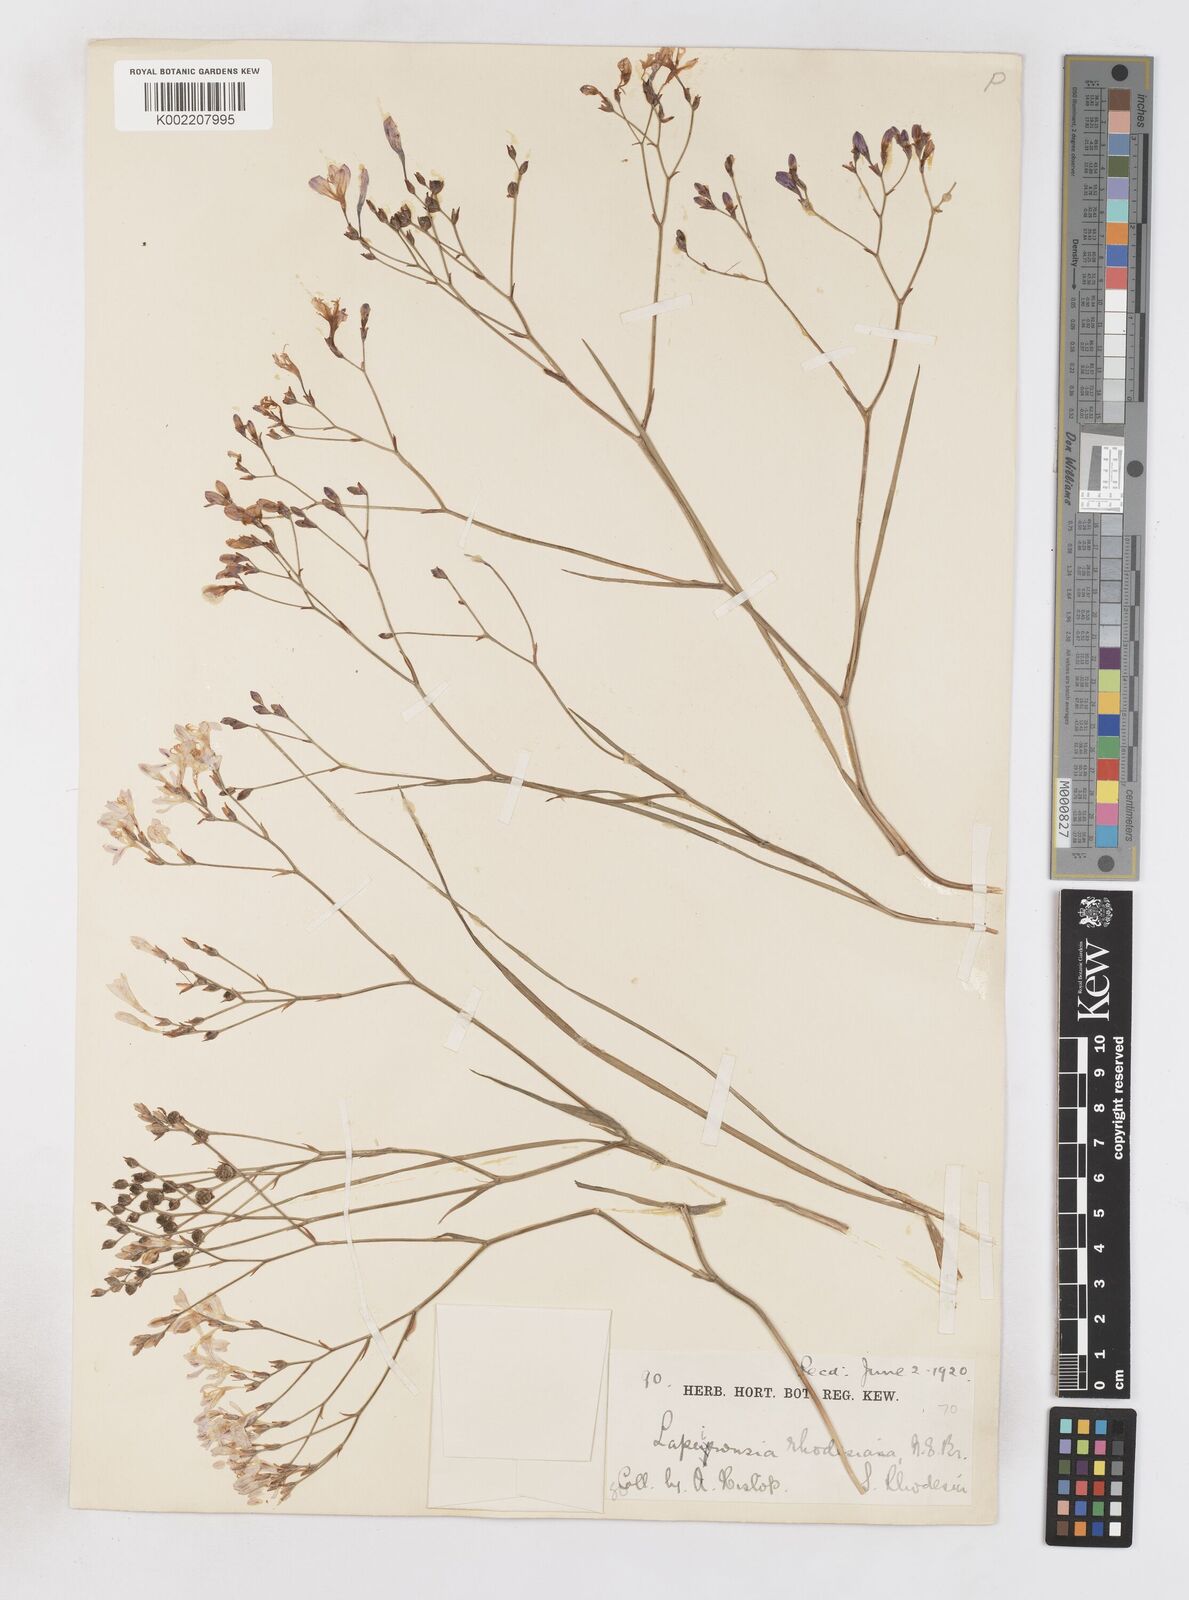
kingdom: Plantae
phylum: Tracheophyta
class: Liliopsida
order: Asparagales
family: Iridaceae
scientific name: Iridaceae
